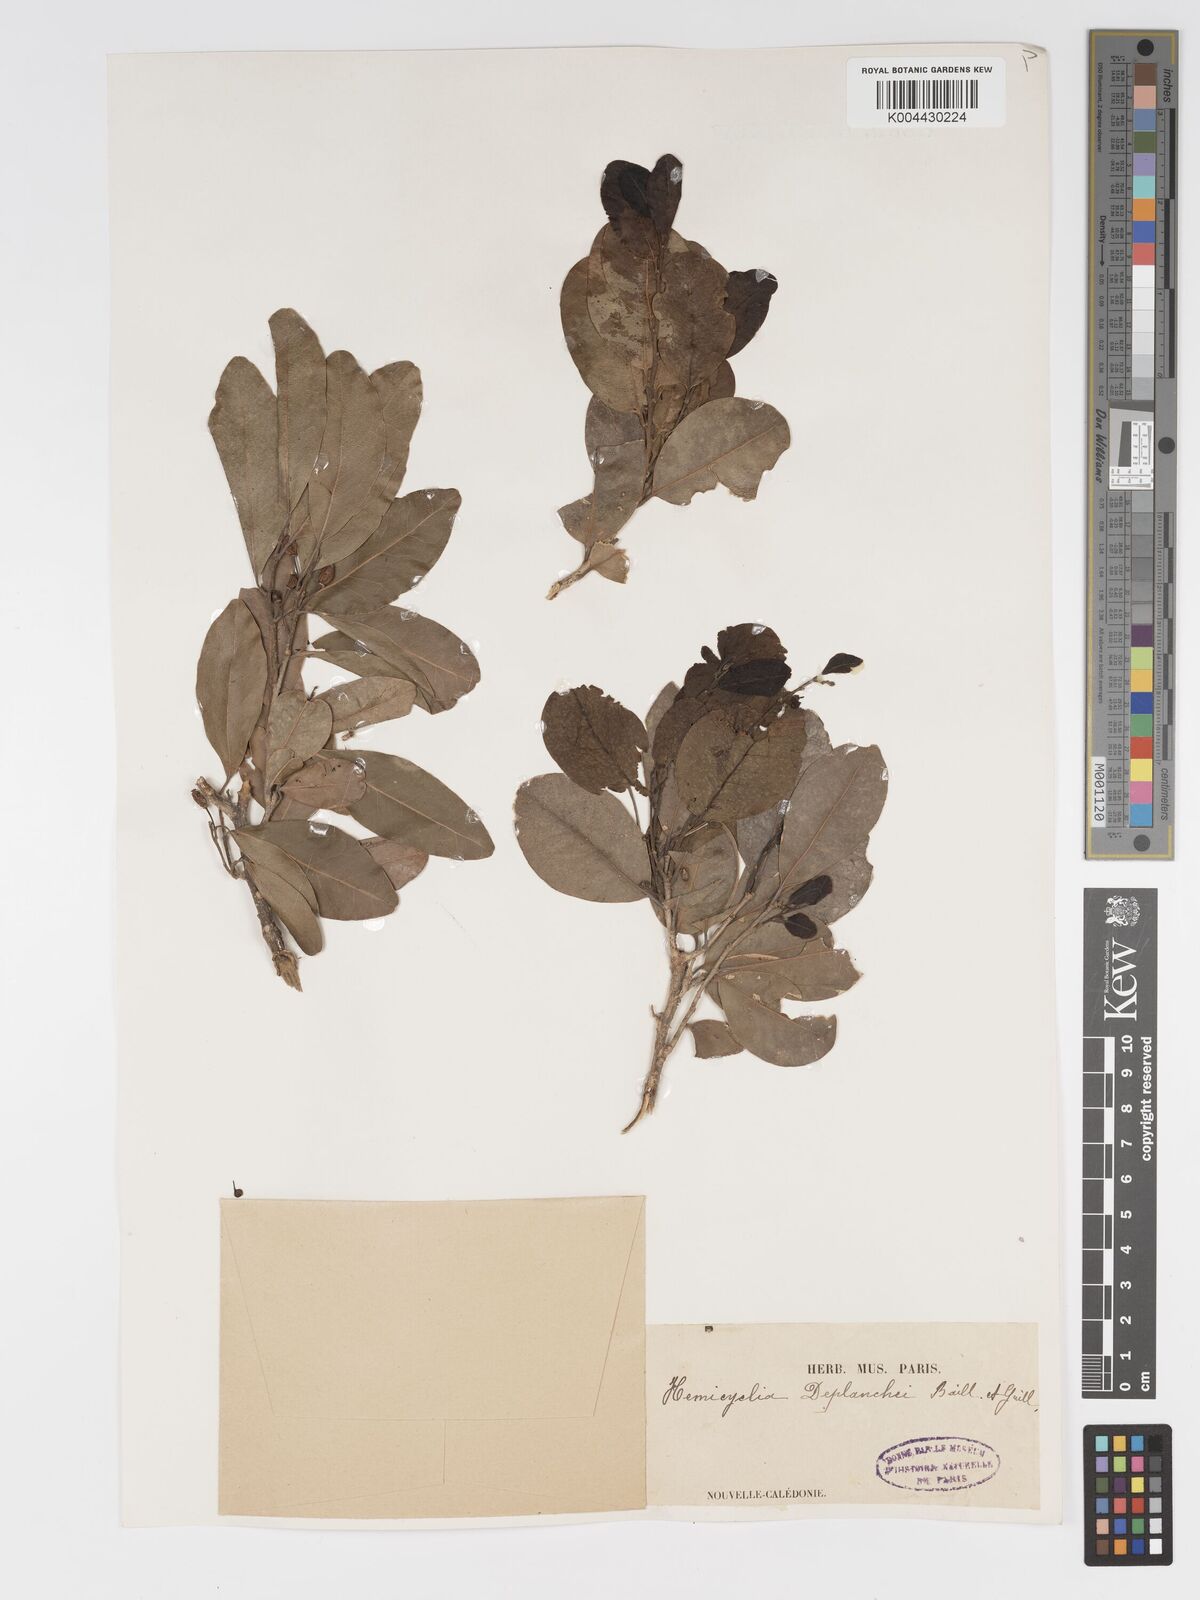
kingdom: Plantae
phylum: Tracheophyta
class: Magnoliopsida
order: Malpighiales
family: Putranjivaceae
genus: Drypetes
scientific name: Drypetes deplanchei
